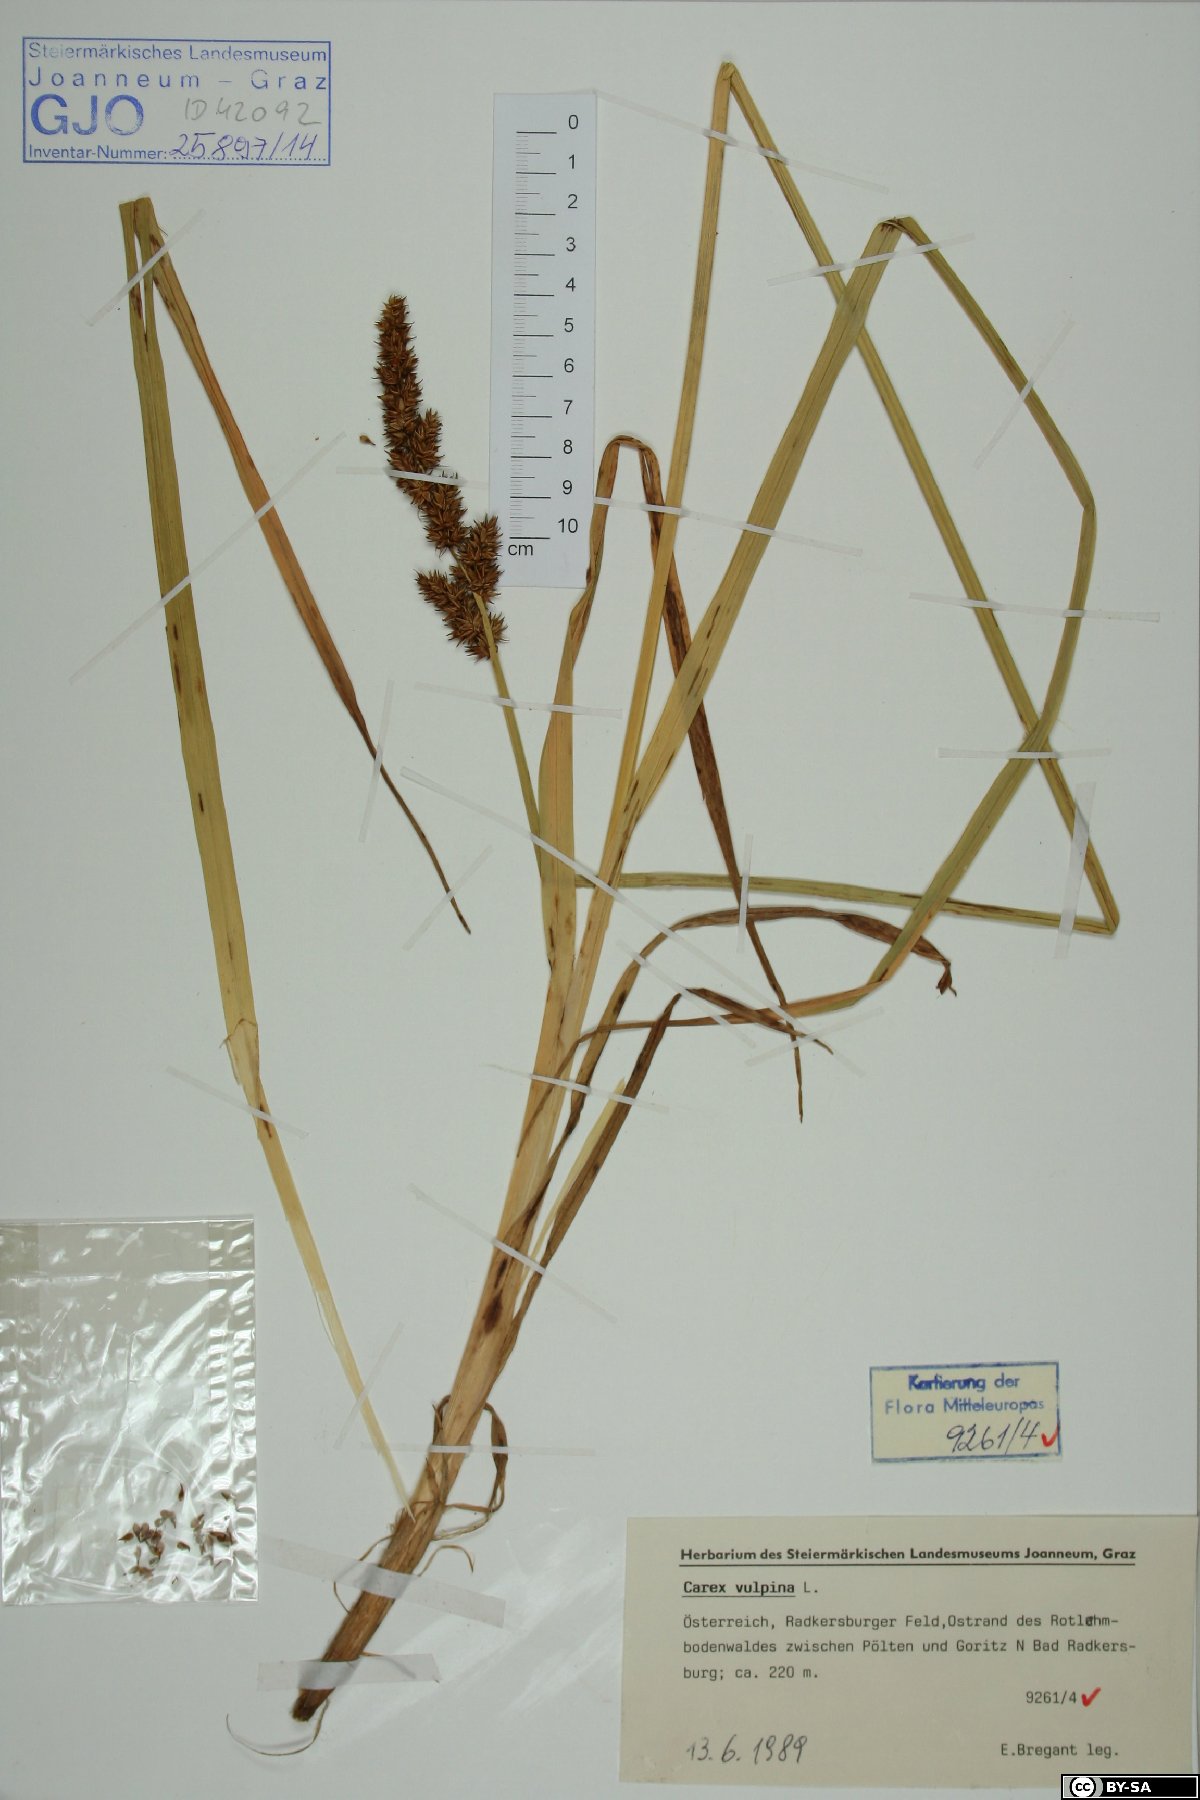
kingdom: Plantae
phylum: Tracheophyta
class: Liliopsida
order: Poales
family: Cyperaceae
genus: Carex
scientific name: Carex vulpina
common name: True fox-sedge
